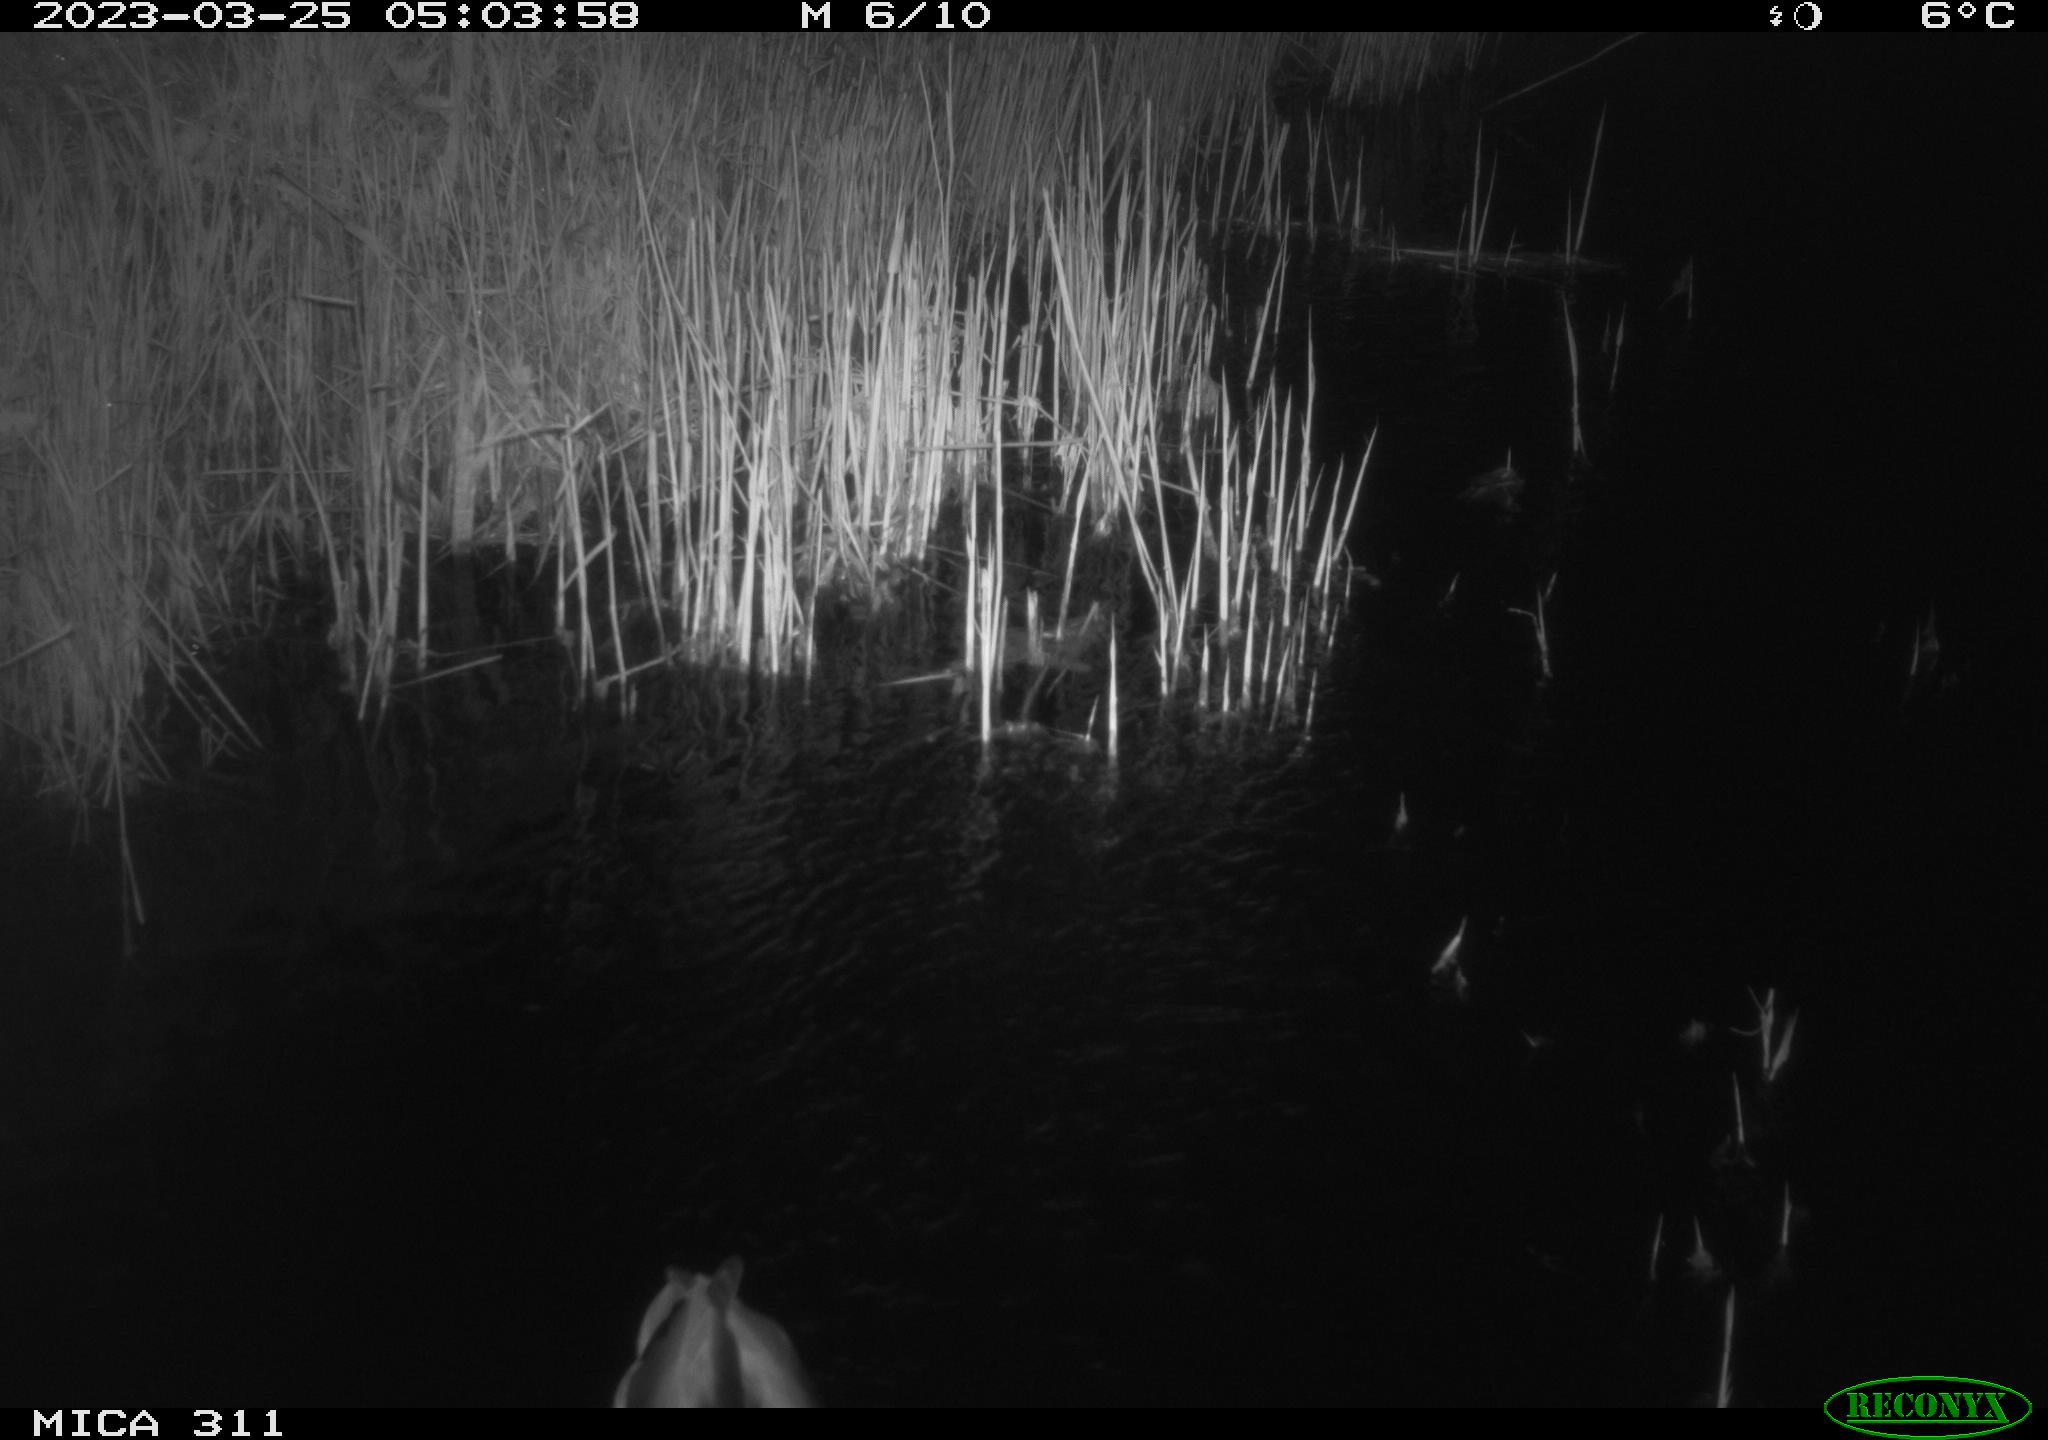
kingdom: Animalia
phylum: Chordata
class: Aves
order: Anseriformes
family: Anatidae
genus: Anas
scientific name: Anas
